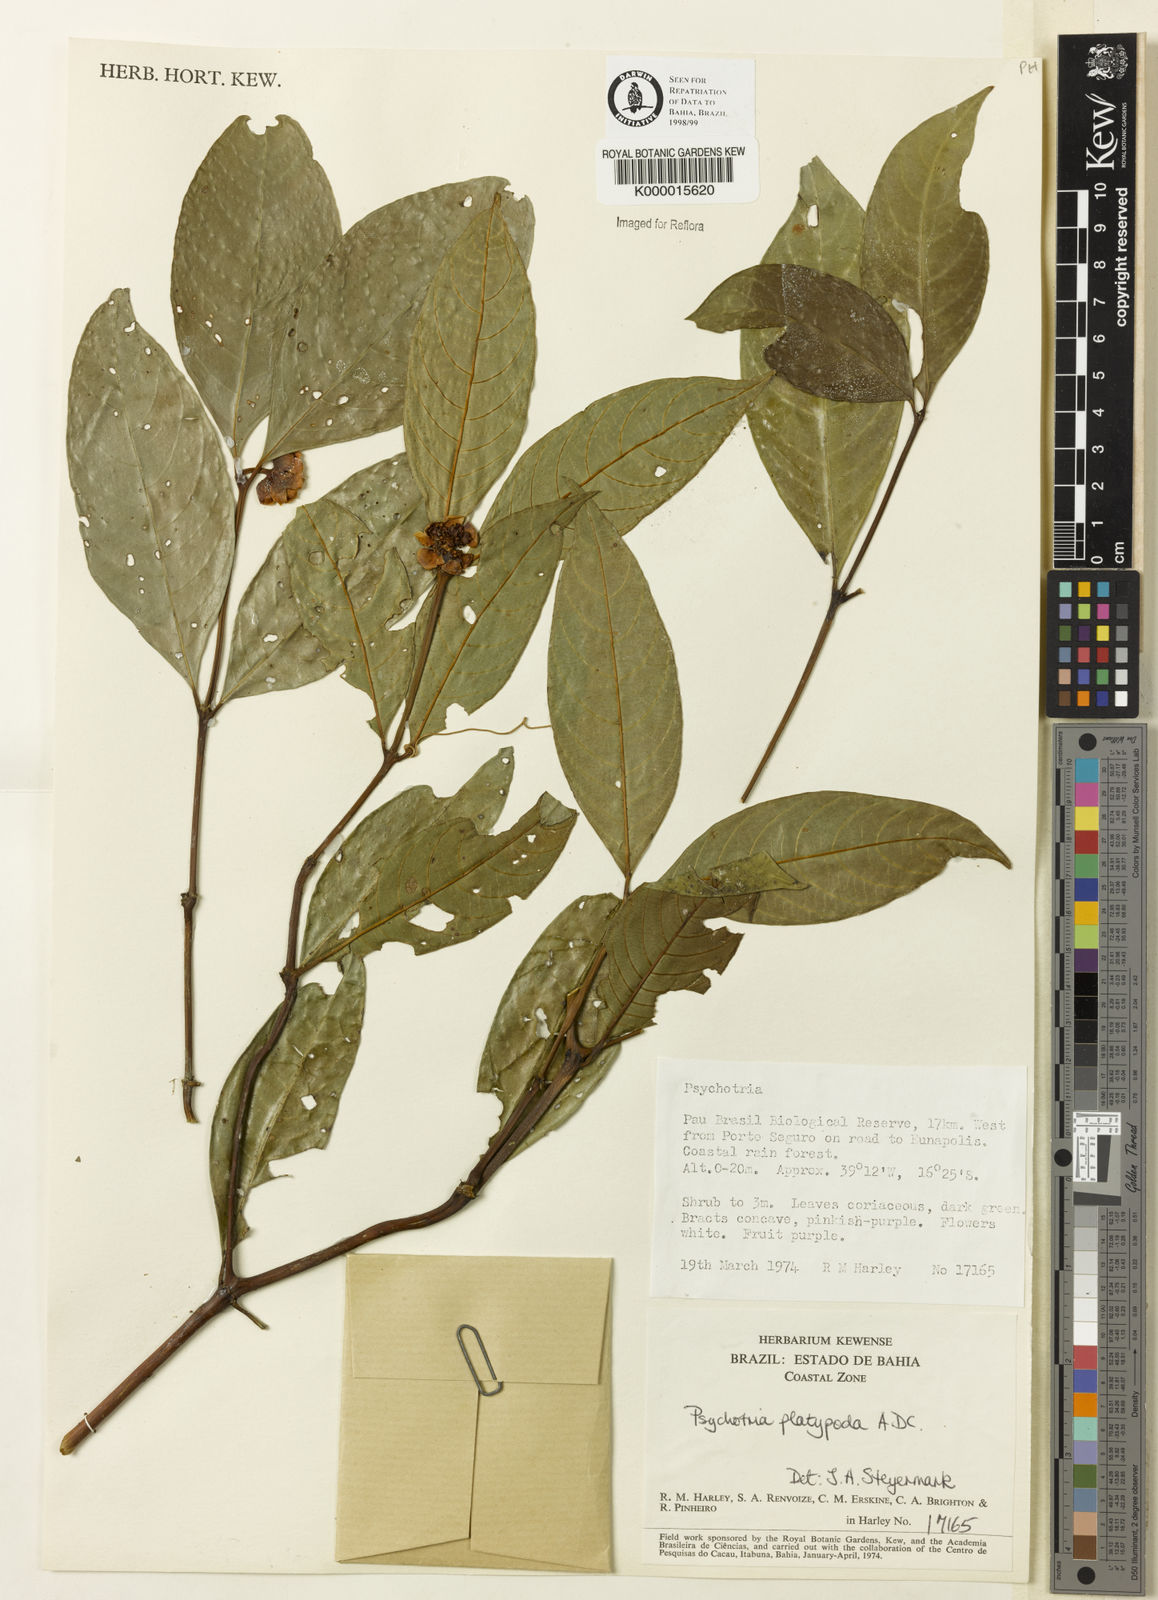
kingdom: Plantae
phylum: Tracheophyta
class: Magnoliopsida
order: Gentianales
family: Rubiaceae
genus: Palicourea
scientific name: Palicourea dichotoma
